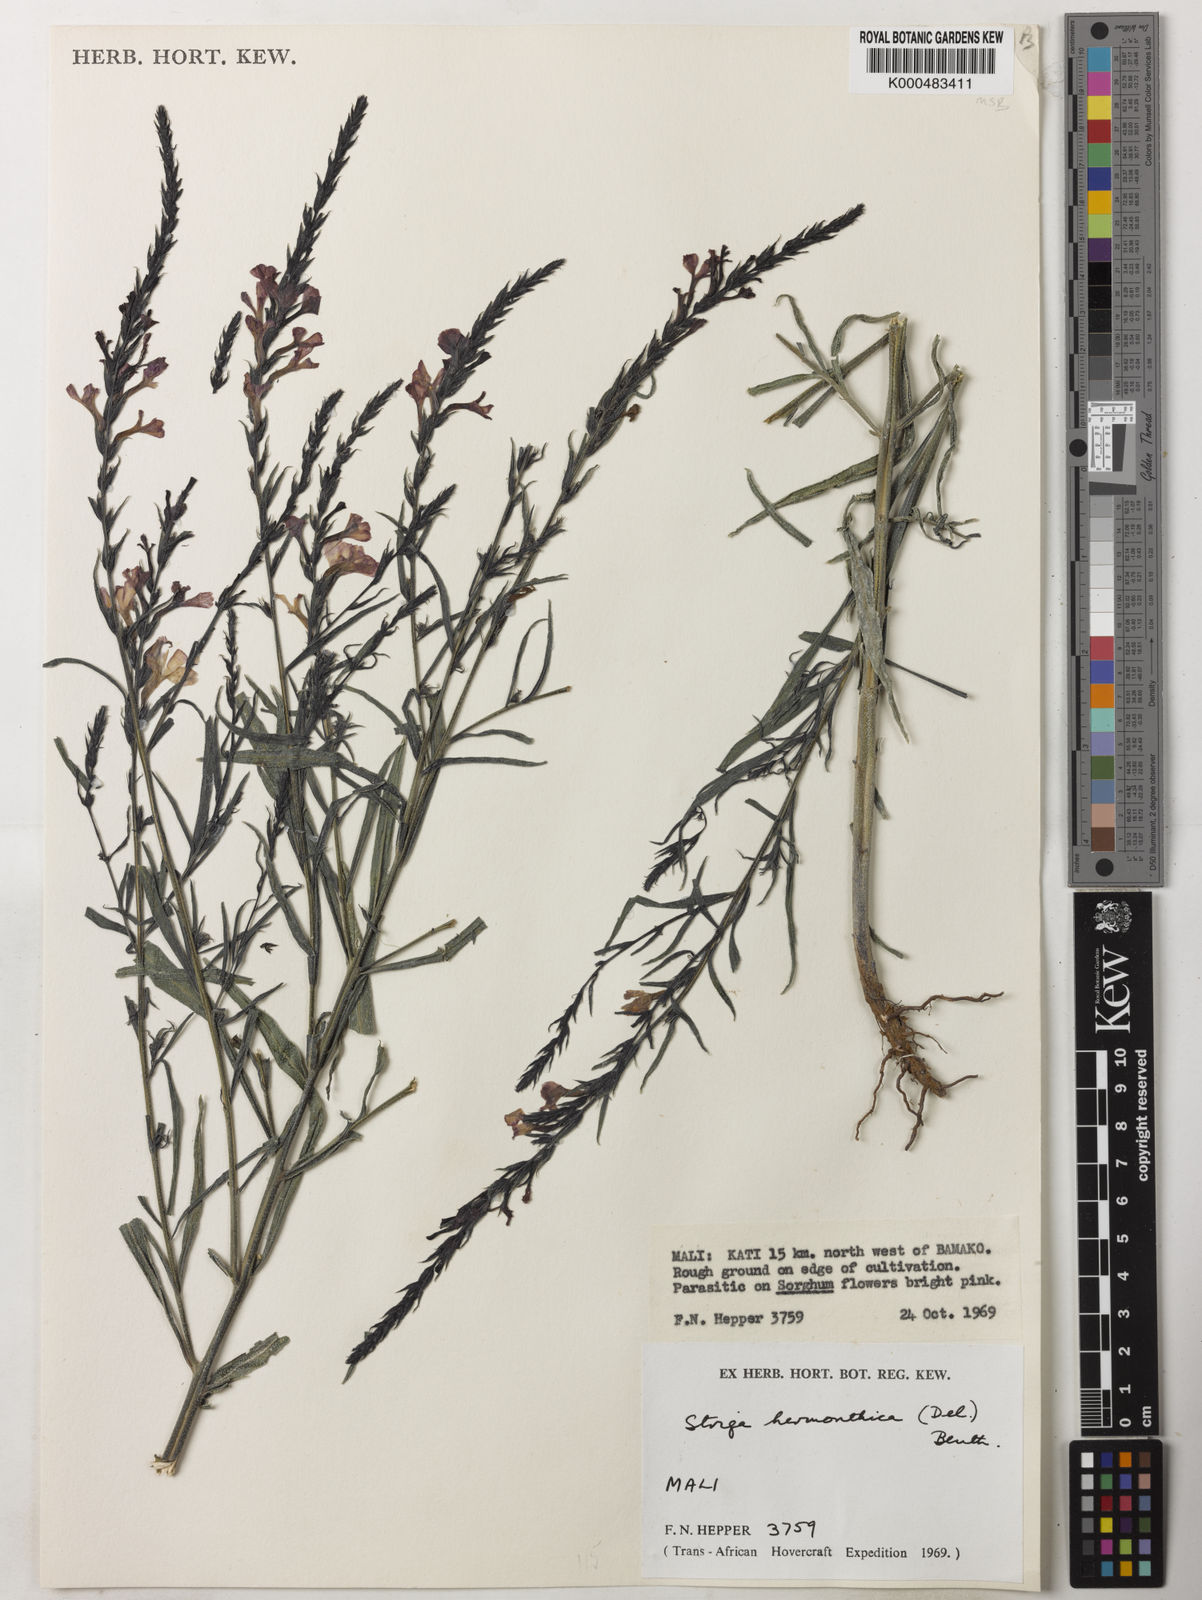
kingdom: Plantae
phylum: Tracheophyta
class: Magnoliopsida
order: Lamiales
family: Orobanchaceae
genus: Striga
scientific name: Striga hermonthica
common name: Purple witchweed
